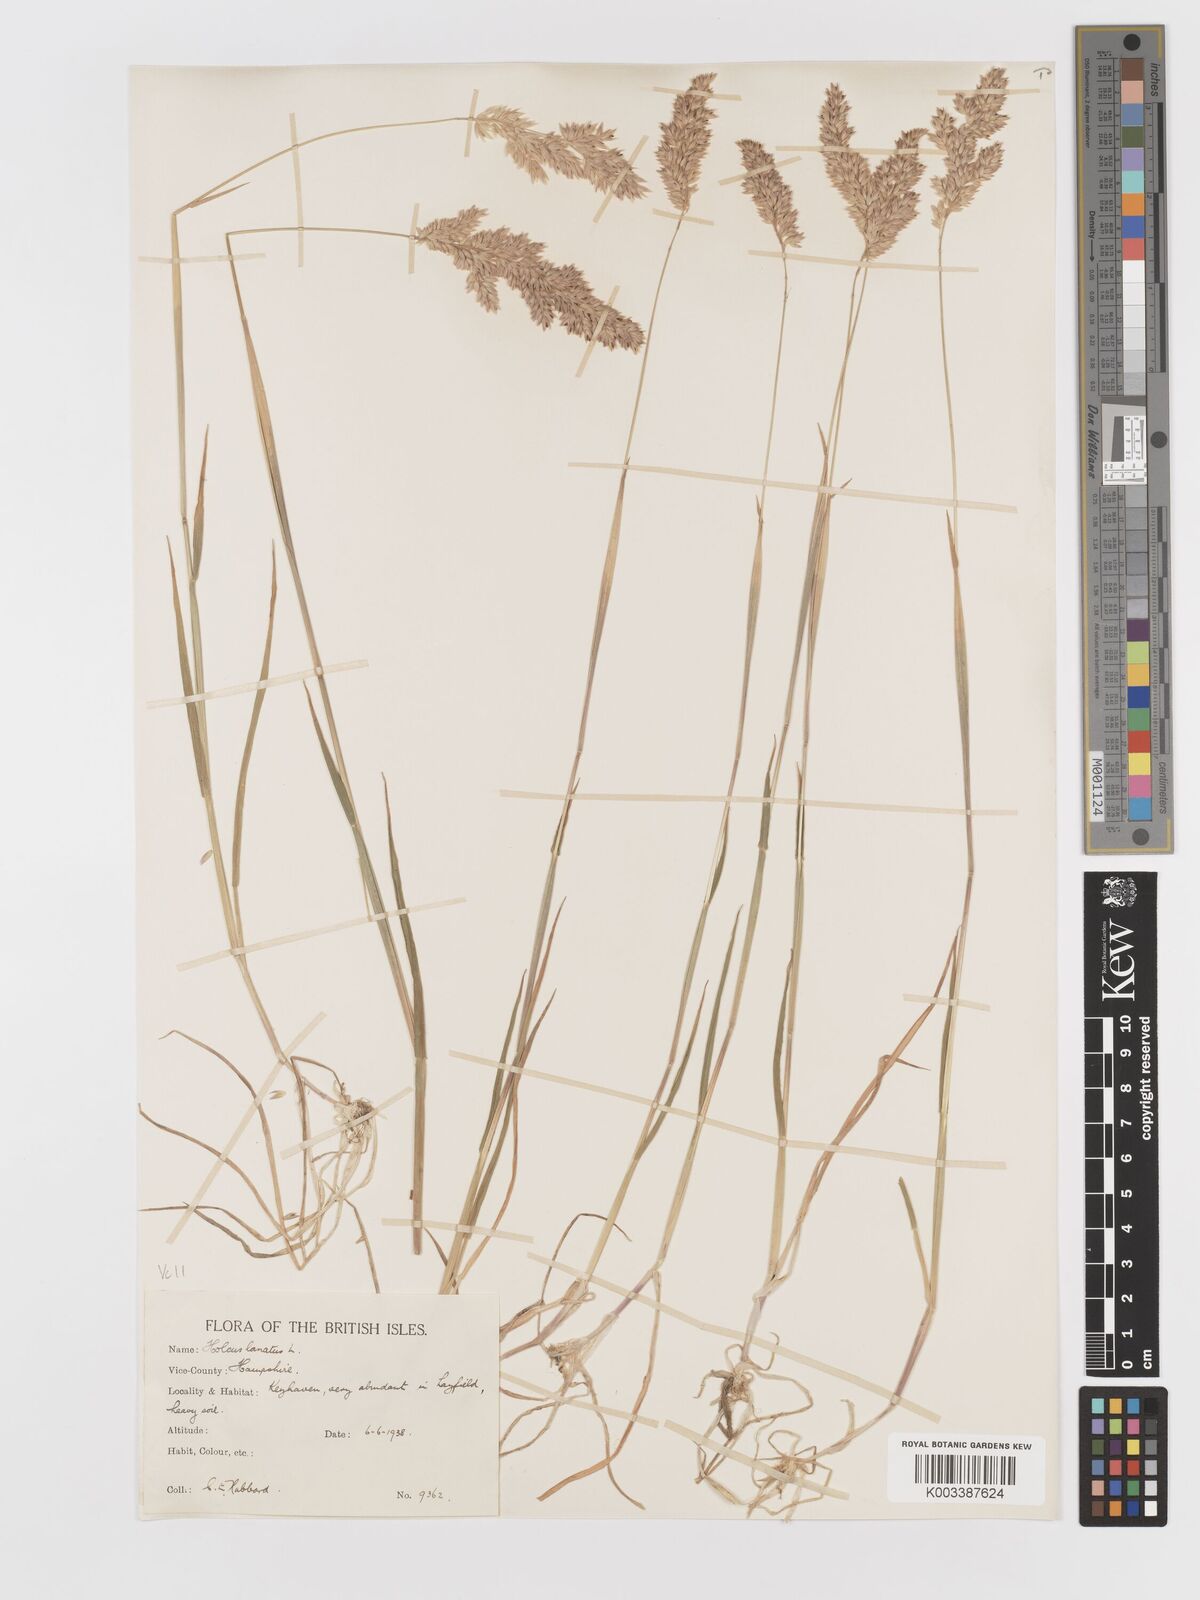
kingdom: Plantae
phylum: Tracheophyta
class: Liliopsida
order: Poales
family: Poaceae
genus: Holcus
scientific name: Holcus lanatus
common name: Yorkshire-fog
